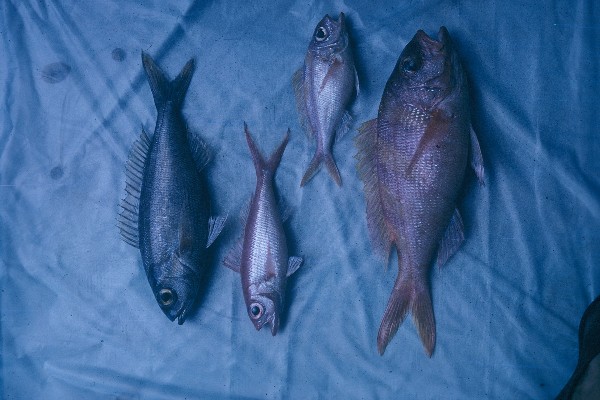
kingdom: Animalia
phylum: Chordata
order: Perciformes
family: Clinidae
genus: Clinus
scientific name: Clinus superciliosus
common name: Super klipfish
